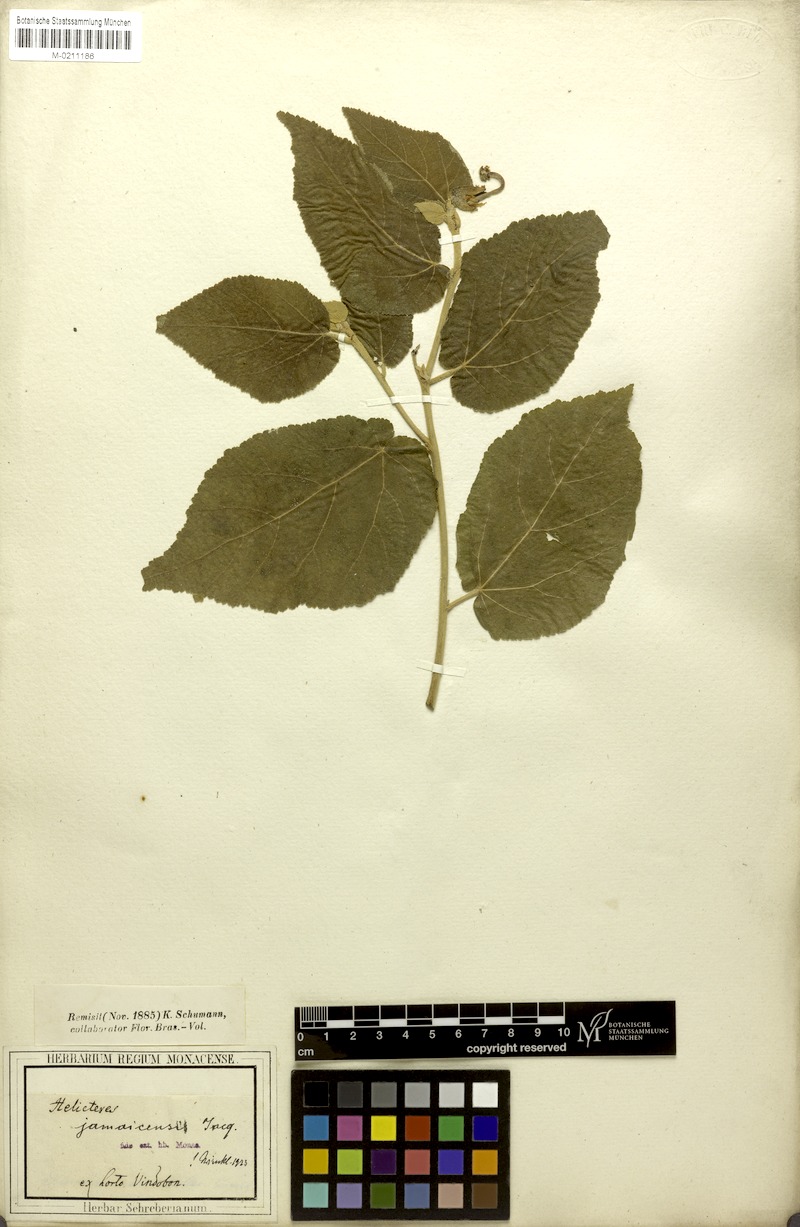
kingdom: Plantae
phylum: Tracheophyta
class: Magnoliopsida
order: Malvales
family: Malvaceae
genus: Helicteres
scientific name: Helicteres jamaicensis
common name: Cowbush
